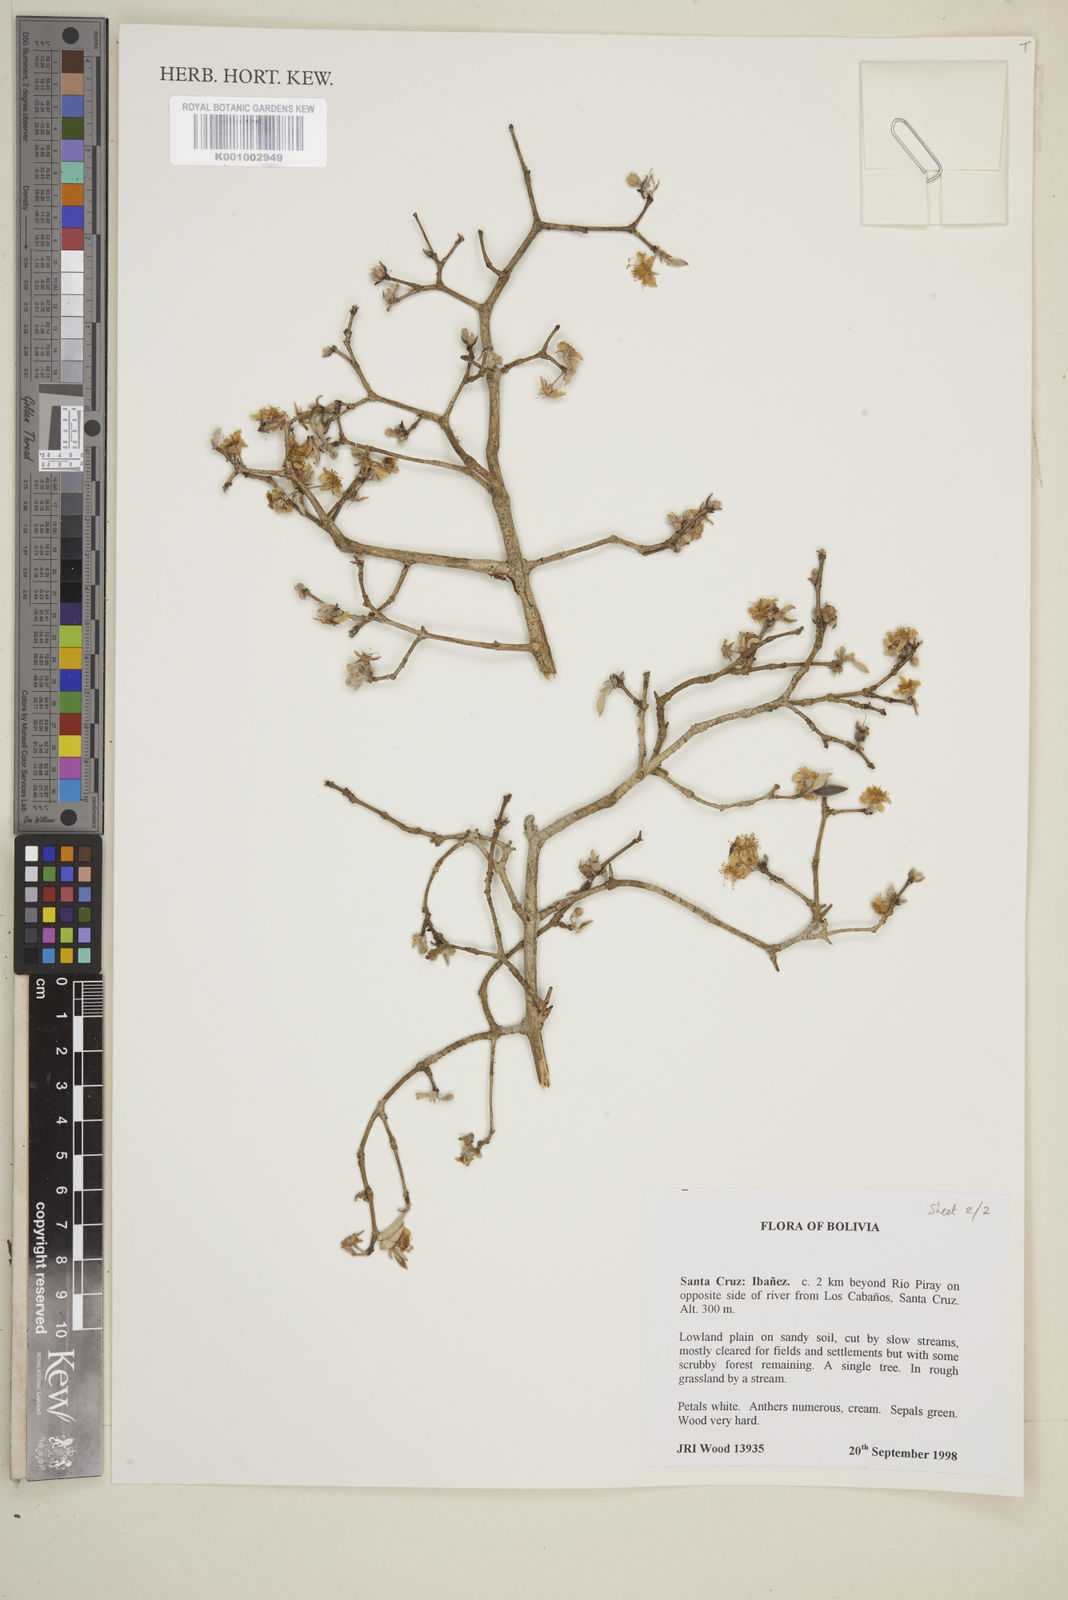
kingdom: Plantae
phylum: Tracheophyta
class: Magnoliopsida
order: Myrtales
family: Myrtaceae
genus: Eugenia
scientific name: Eugenia myrcianthes
